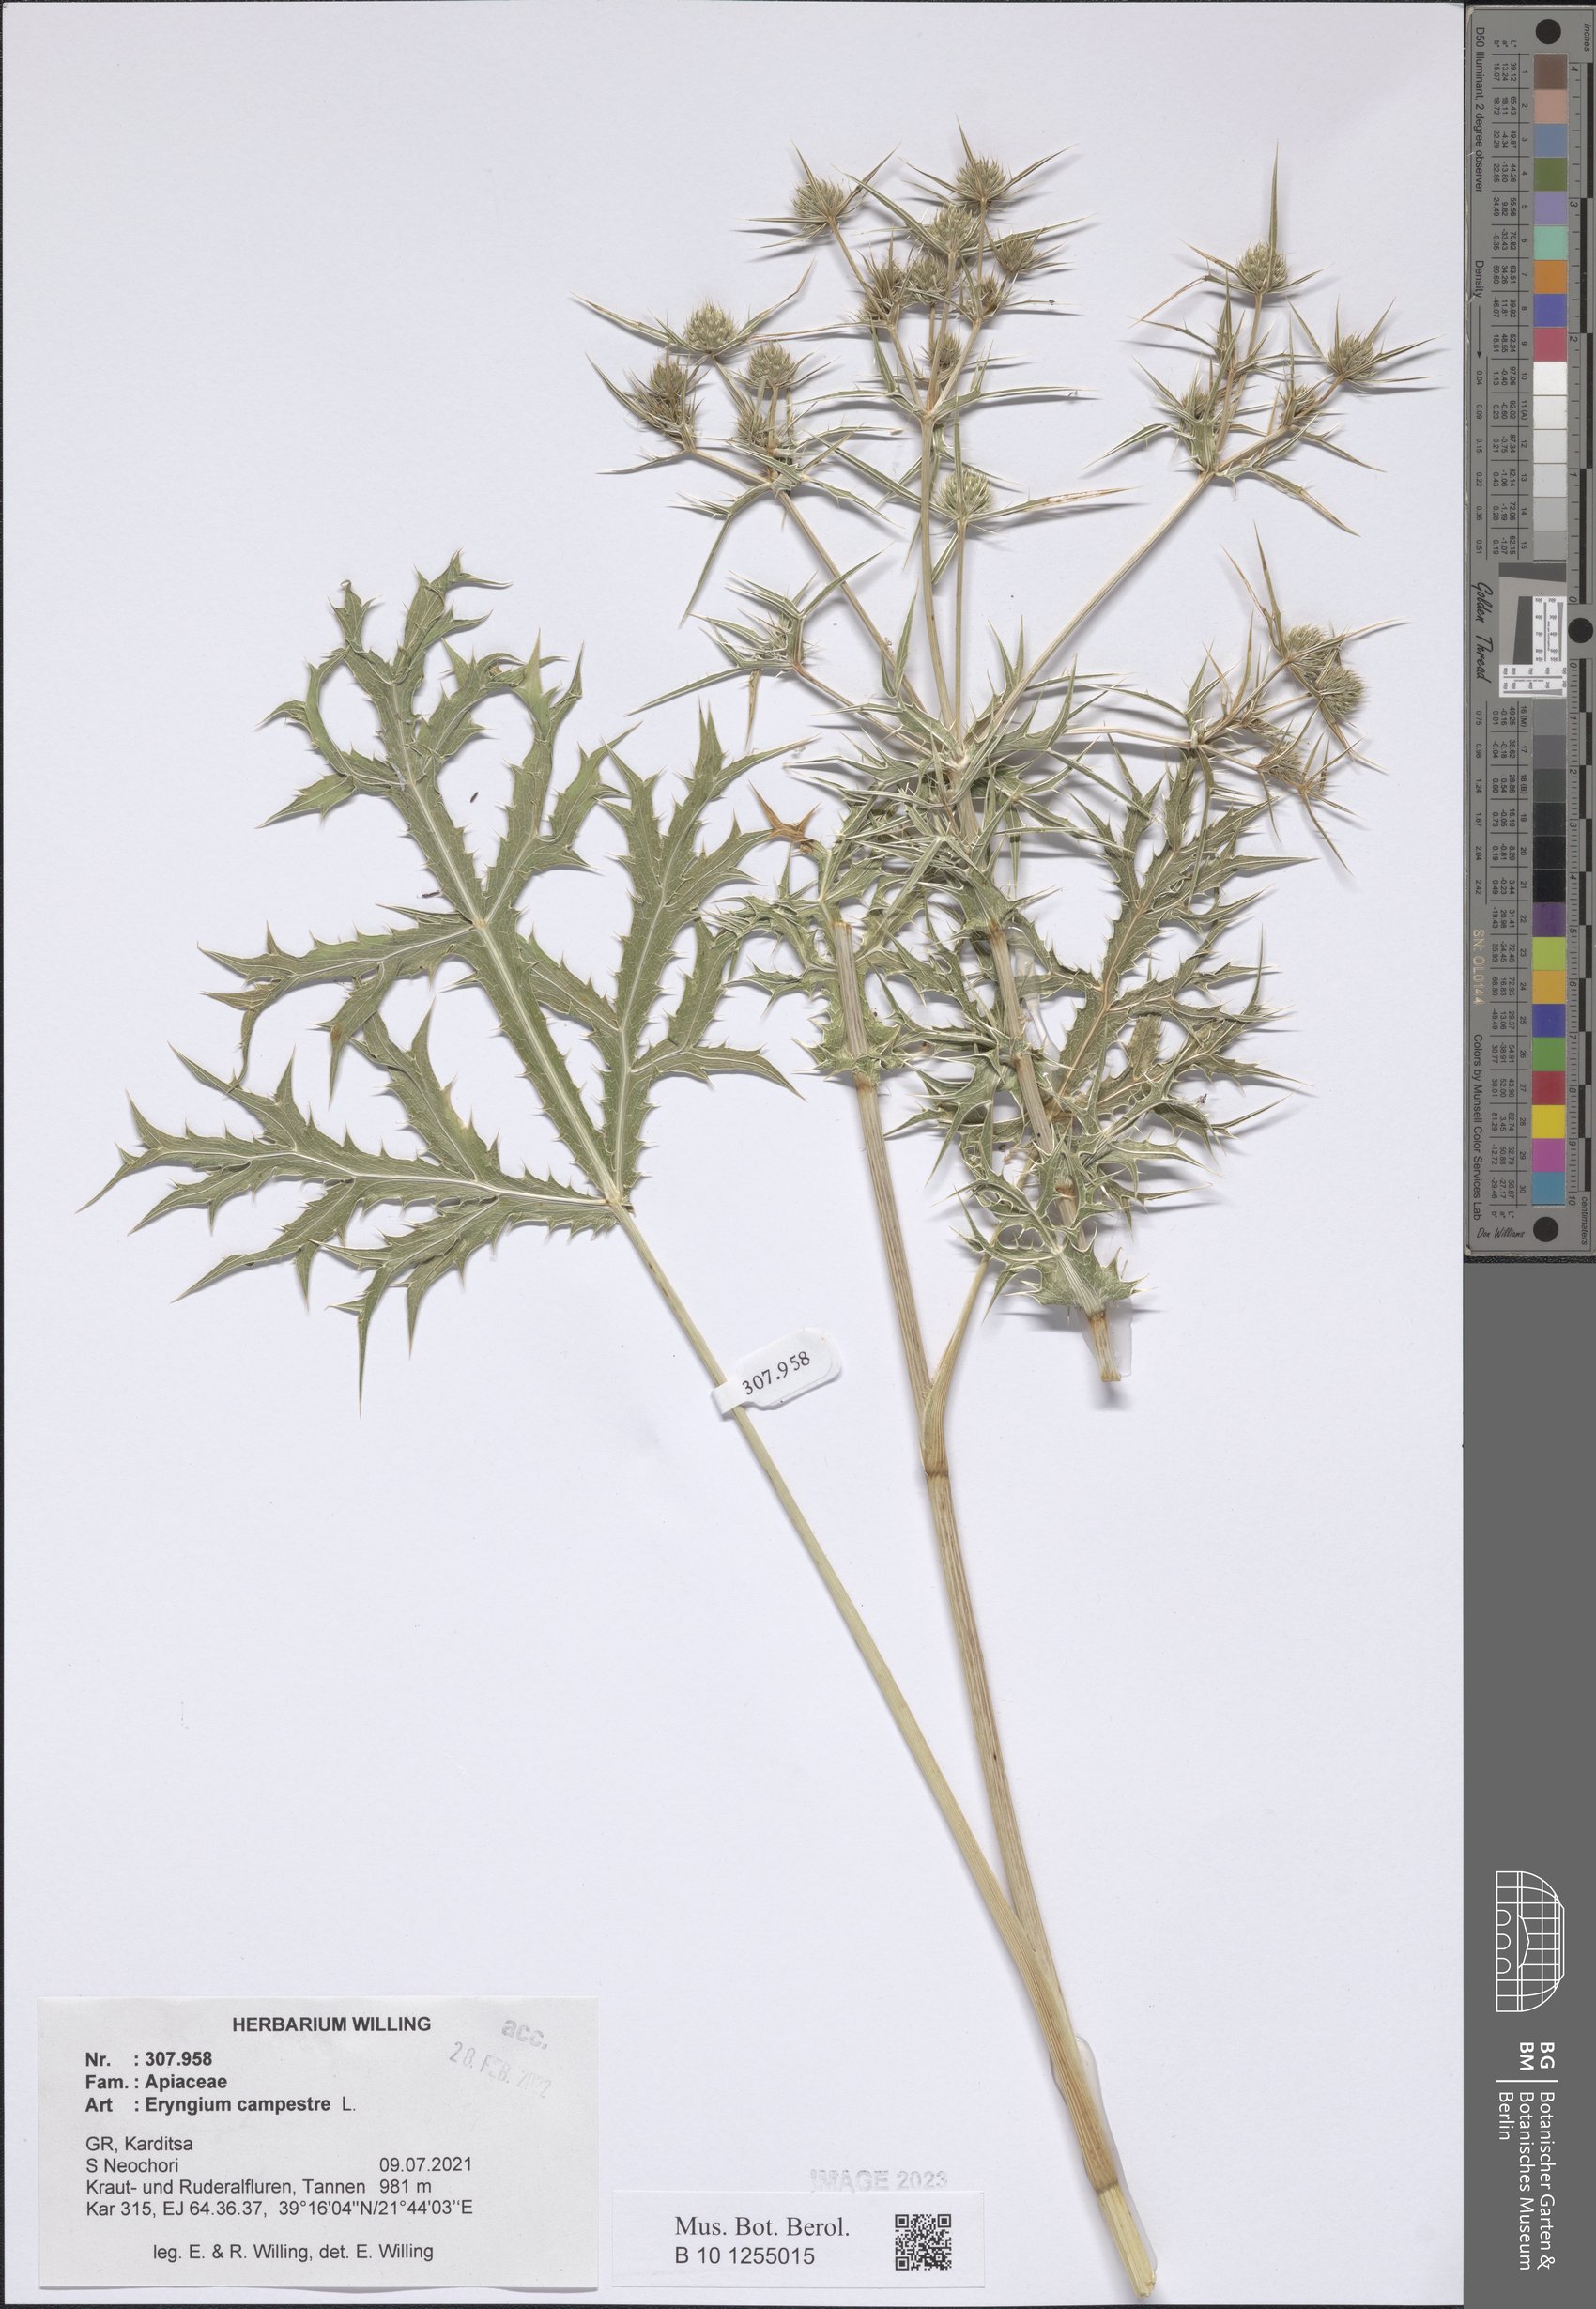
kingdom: Plantae
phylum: Tracheophyta
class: Magnoliopsida
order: Apiales
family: Apiaceae
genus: Eryngium
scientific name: Eryngium campestre
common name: Field eryngo
